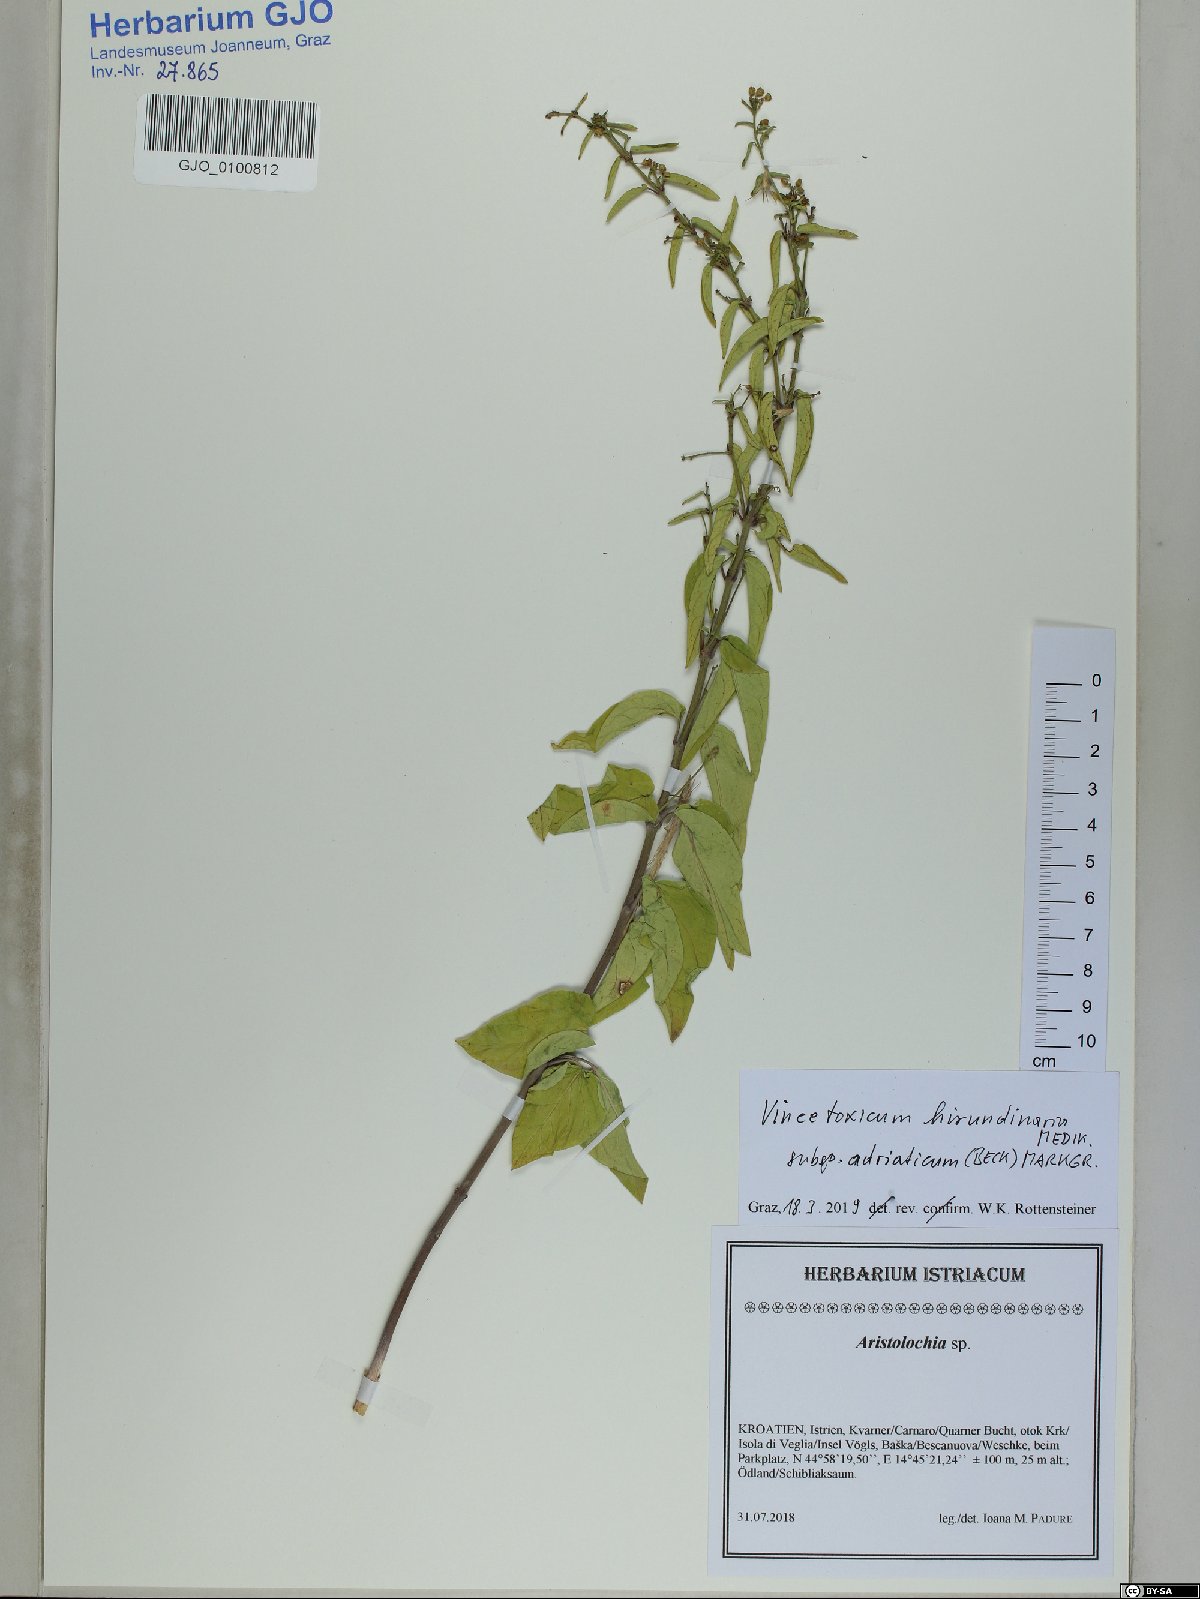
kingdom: Plantae
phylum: Tracheophyta
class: Magnoliopsida
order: Gentianales
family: Apocynaceae
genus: Vincetoxicum
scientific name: Vincetoxicum hirundinaria
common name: White swallowwort
